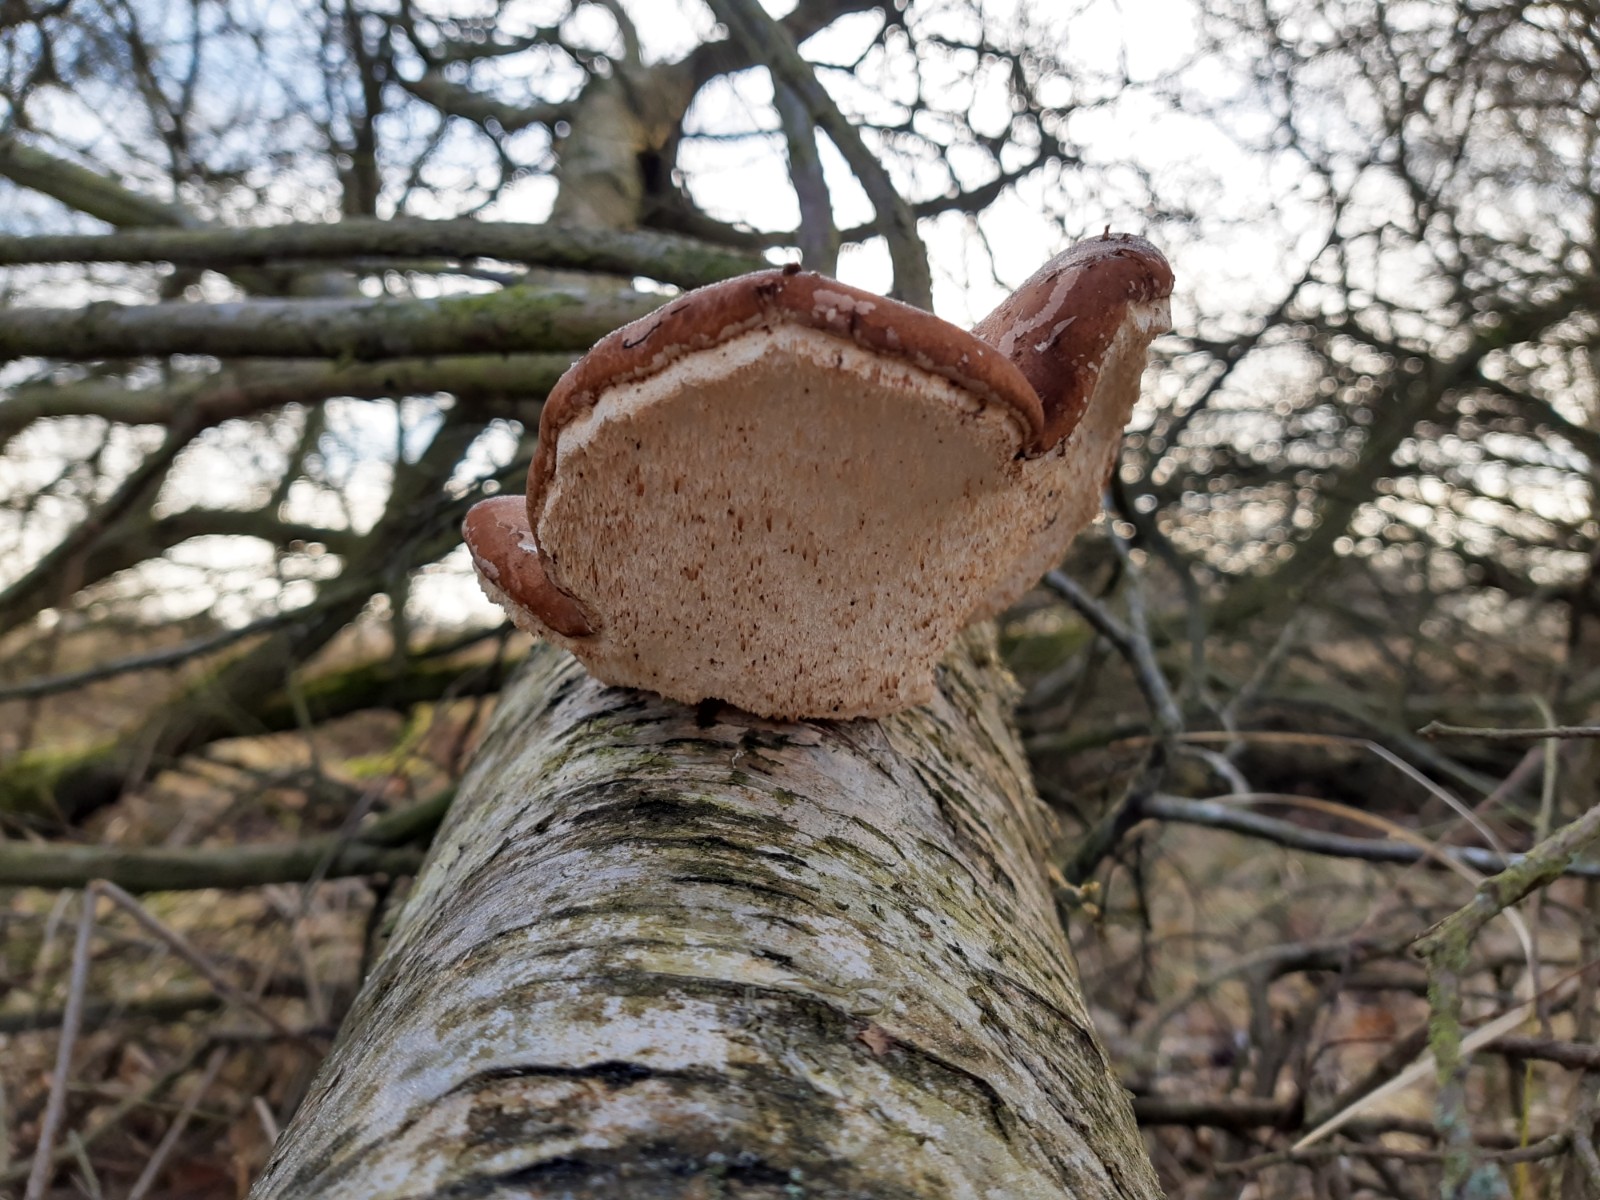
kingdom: Fungi
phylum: Basidiomycota
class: Agaricomycetes
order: Polyporales
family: Fomitopsidaceae
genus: Fomitopsis
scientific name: Fomitopsis betulina
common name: birkeporesvamp
